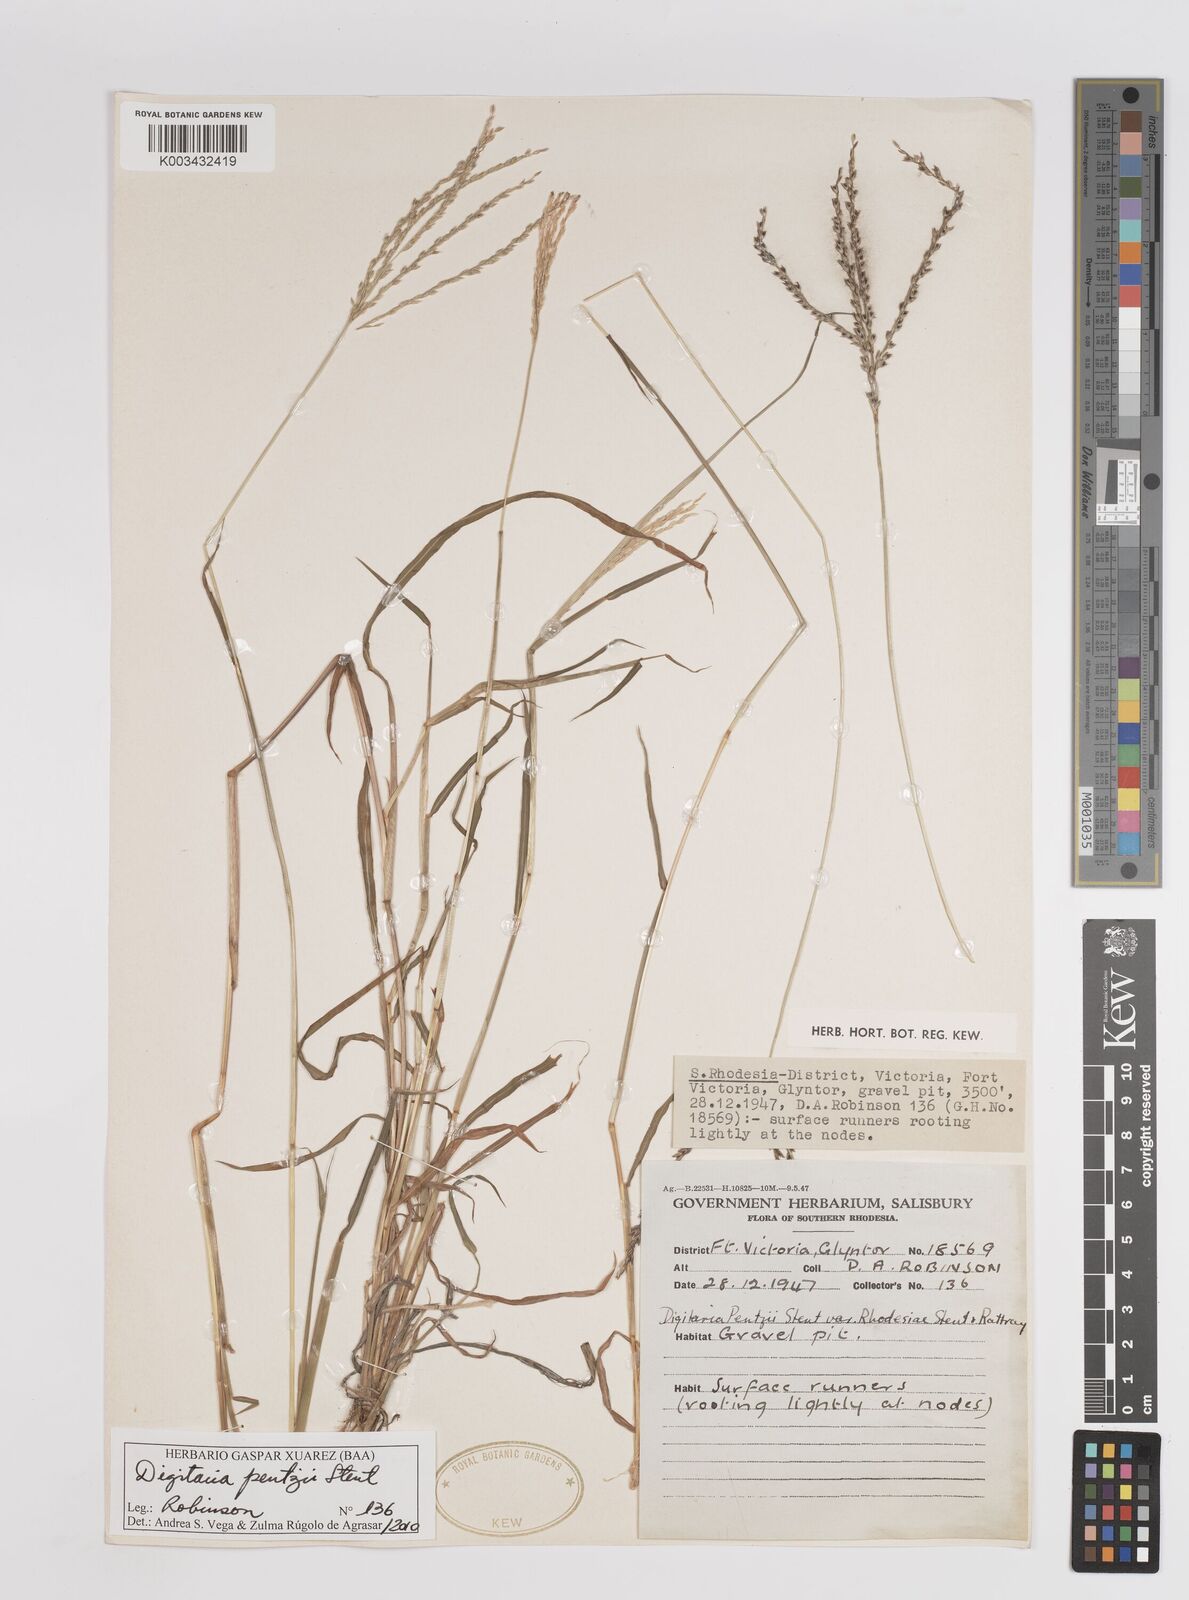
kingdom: Plantae
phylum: Tracheophyta
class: Liliopsida
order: Poales
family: Poaceae
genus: Digitaria
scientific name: Digitaria eriantha
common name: Digitgrass
